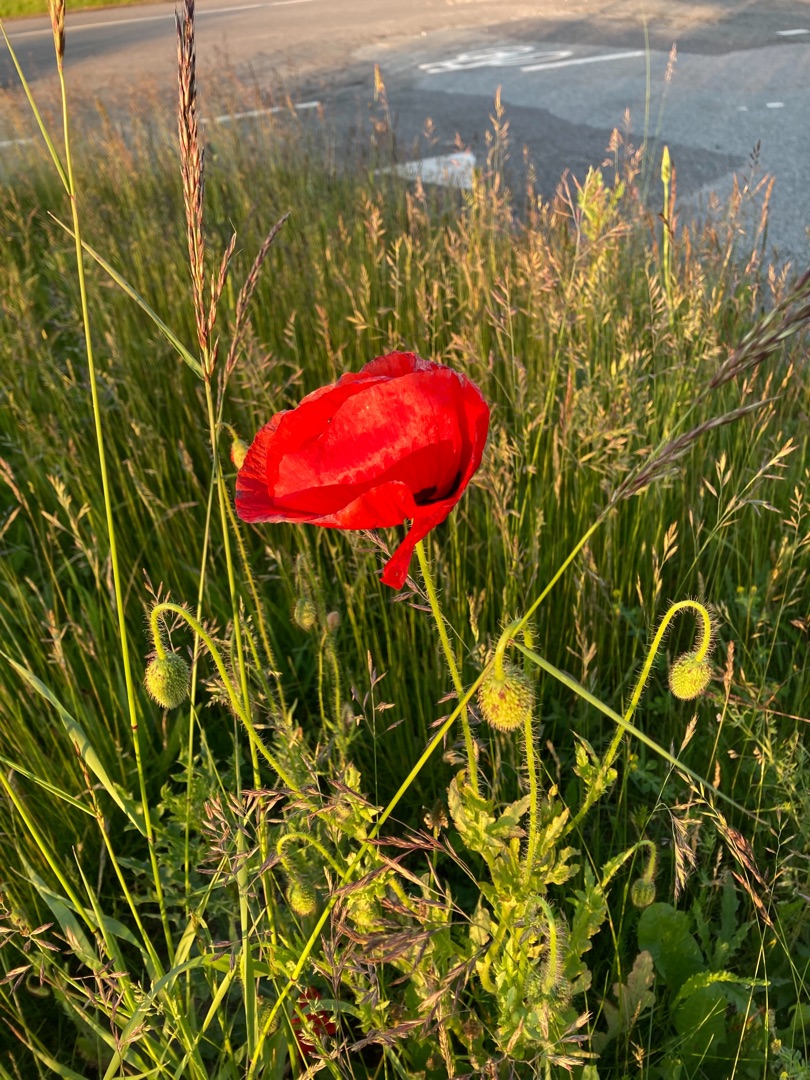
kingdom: Plantae
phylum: Tracheophyta
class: Magnoliopsida
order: Ranunculales
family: Papaveraceae
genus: Papaver
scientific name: Papaver rhoeas
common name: Korn-valmue
